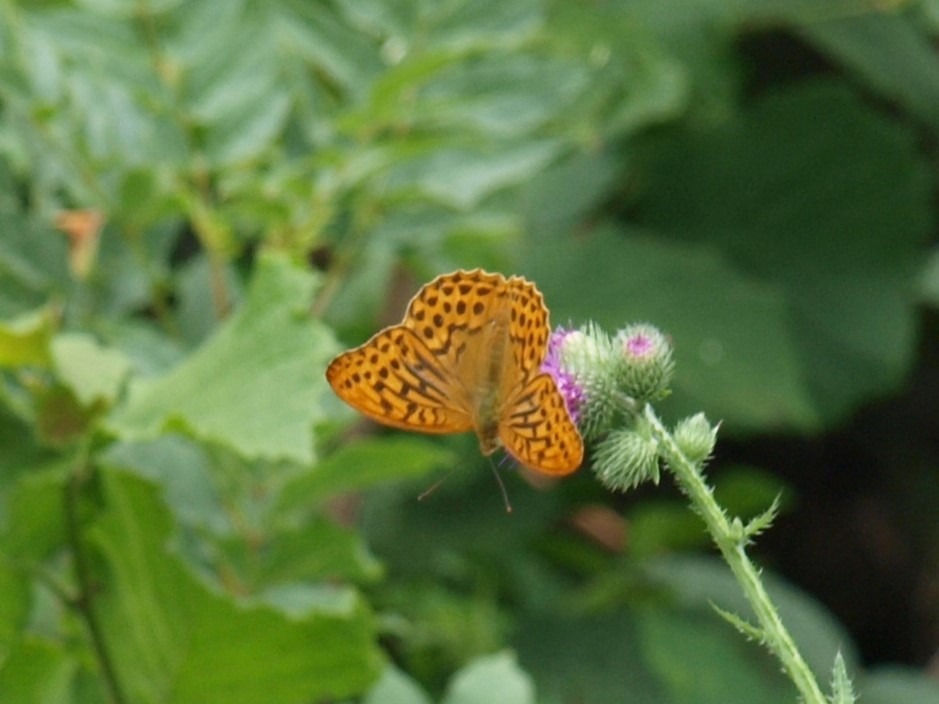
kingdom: Animalia
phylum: Arthropoda
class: Insecta
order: Lepidoptera
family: Nymphalidae
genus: Argynnis
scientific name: Argynnis paphia
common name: Kejserkåbe
